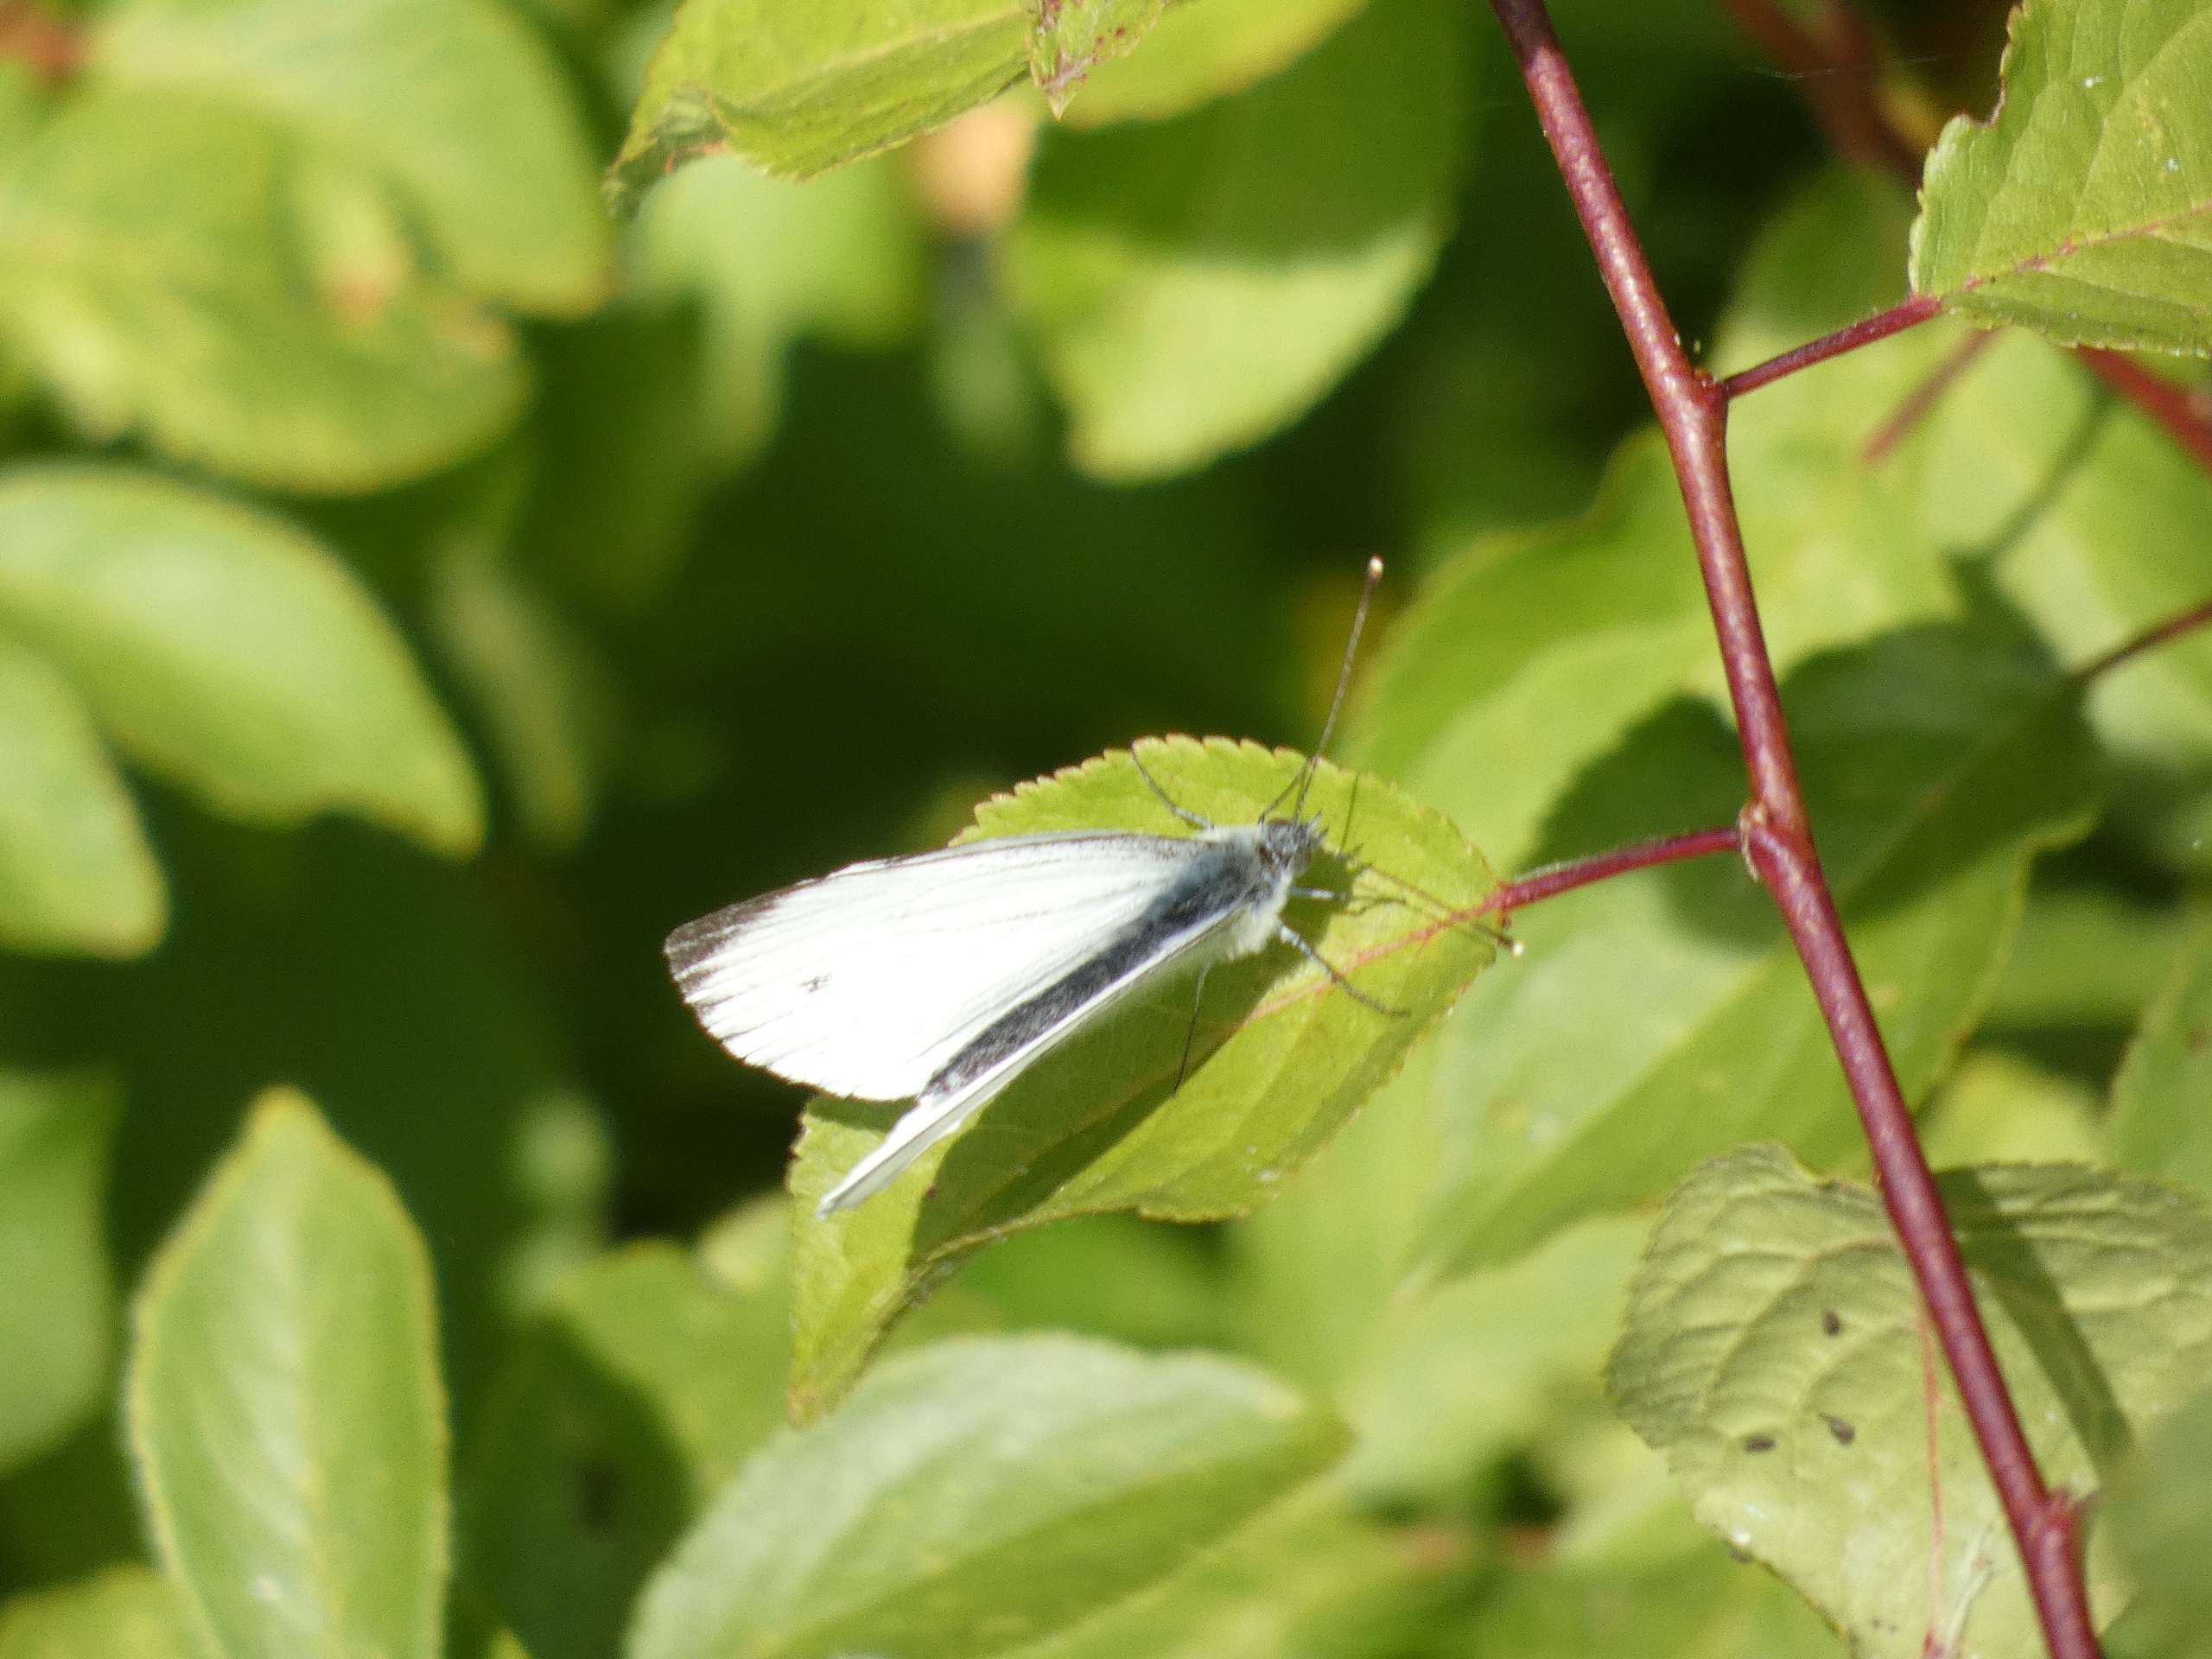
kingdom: Animalia
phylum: Arthropoda
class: Insecta
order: Lepidoptera
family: Pieridae
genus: Pieris
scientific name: Pieris napi
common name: Grønåret kålsommerfugl
